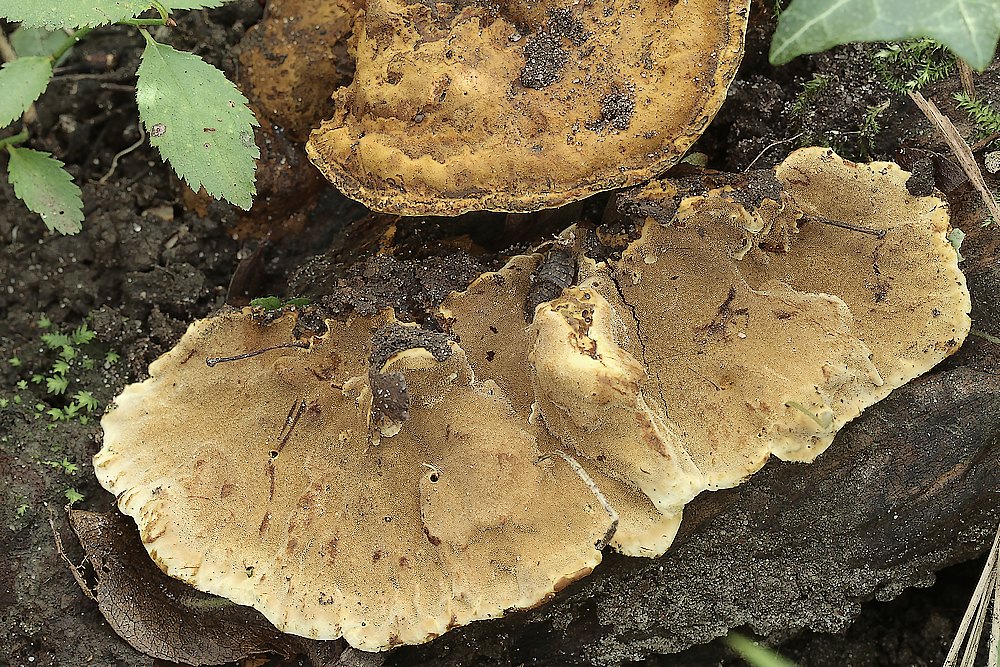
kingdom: Fungi
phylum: Basidiomycota
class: Agaricomycetes
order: Hymenochaetales
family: Hymenochaetaceae
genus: Phylloporia
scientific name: Phylloporia ribis
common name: ribs-ildporesvamp
